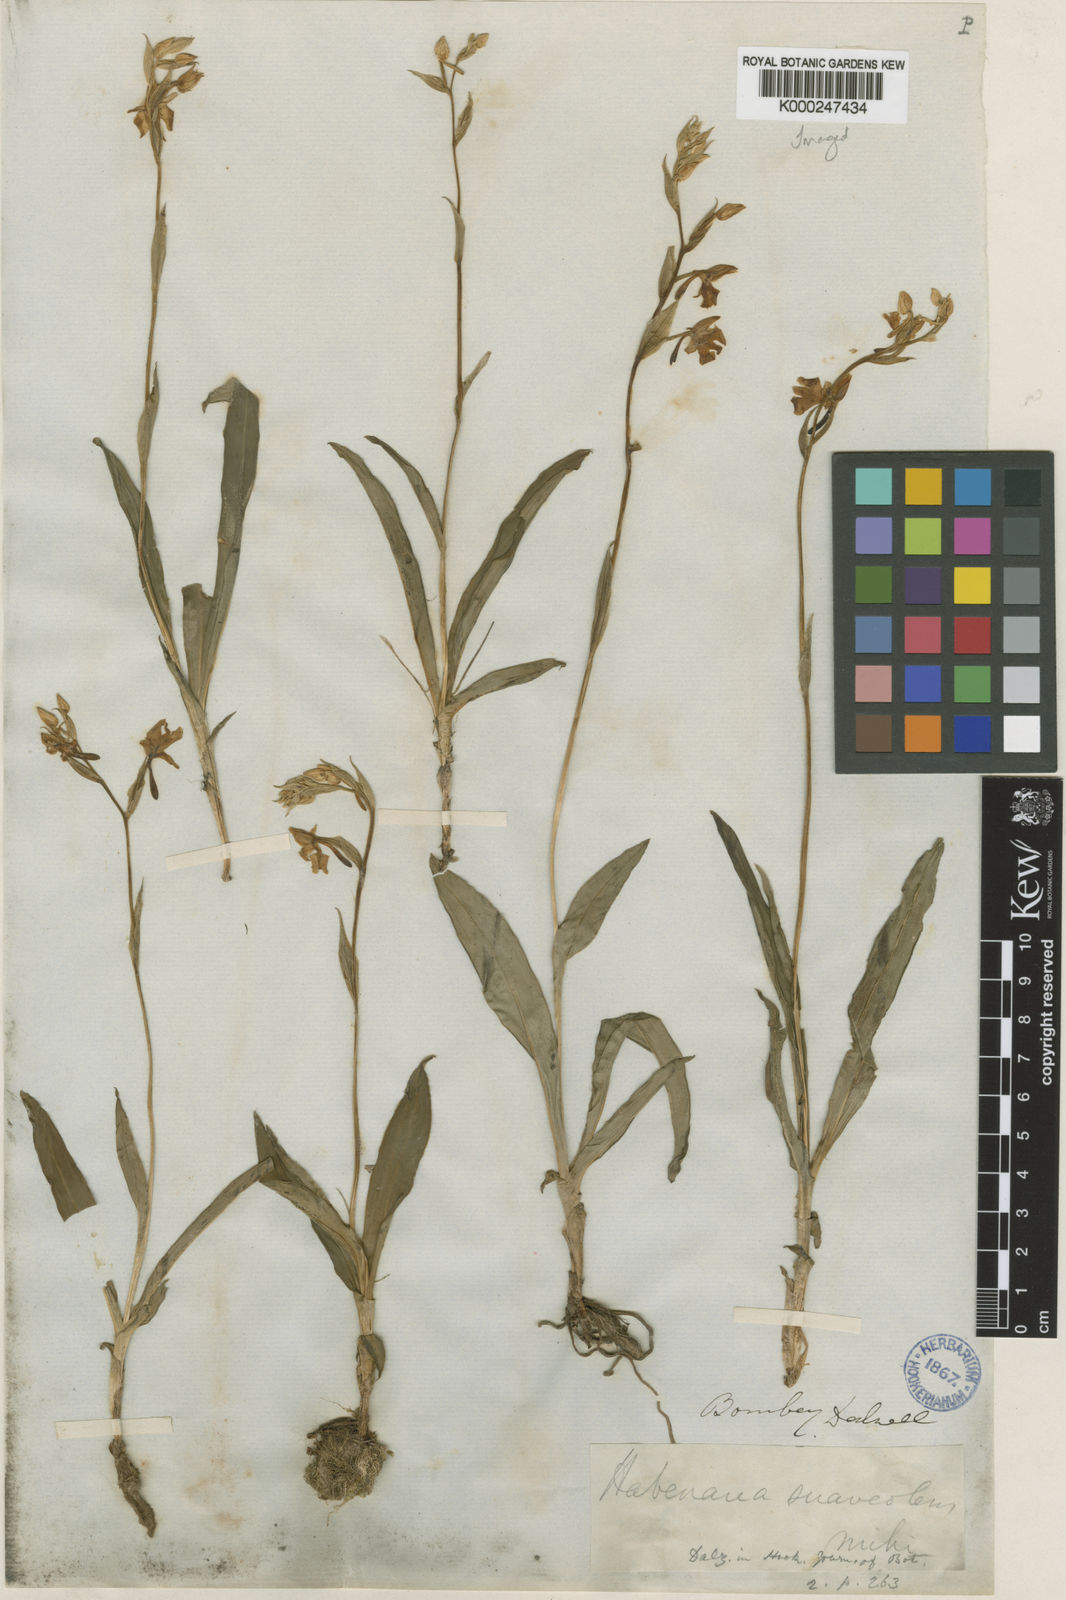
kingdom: Plantae
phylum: Tracheophyta
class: Liliopsida
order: Asparagales
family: Orchidaceae
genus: Habenaria
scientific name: Habenaria suaveolens
